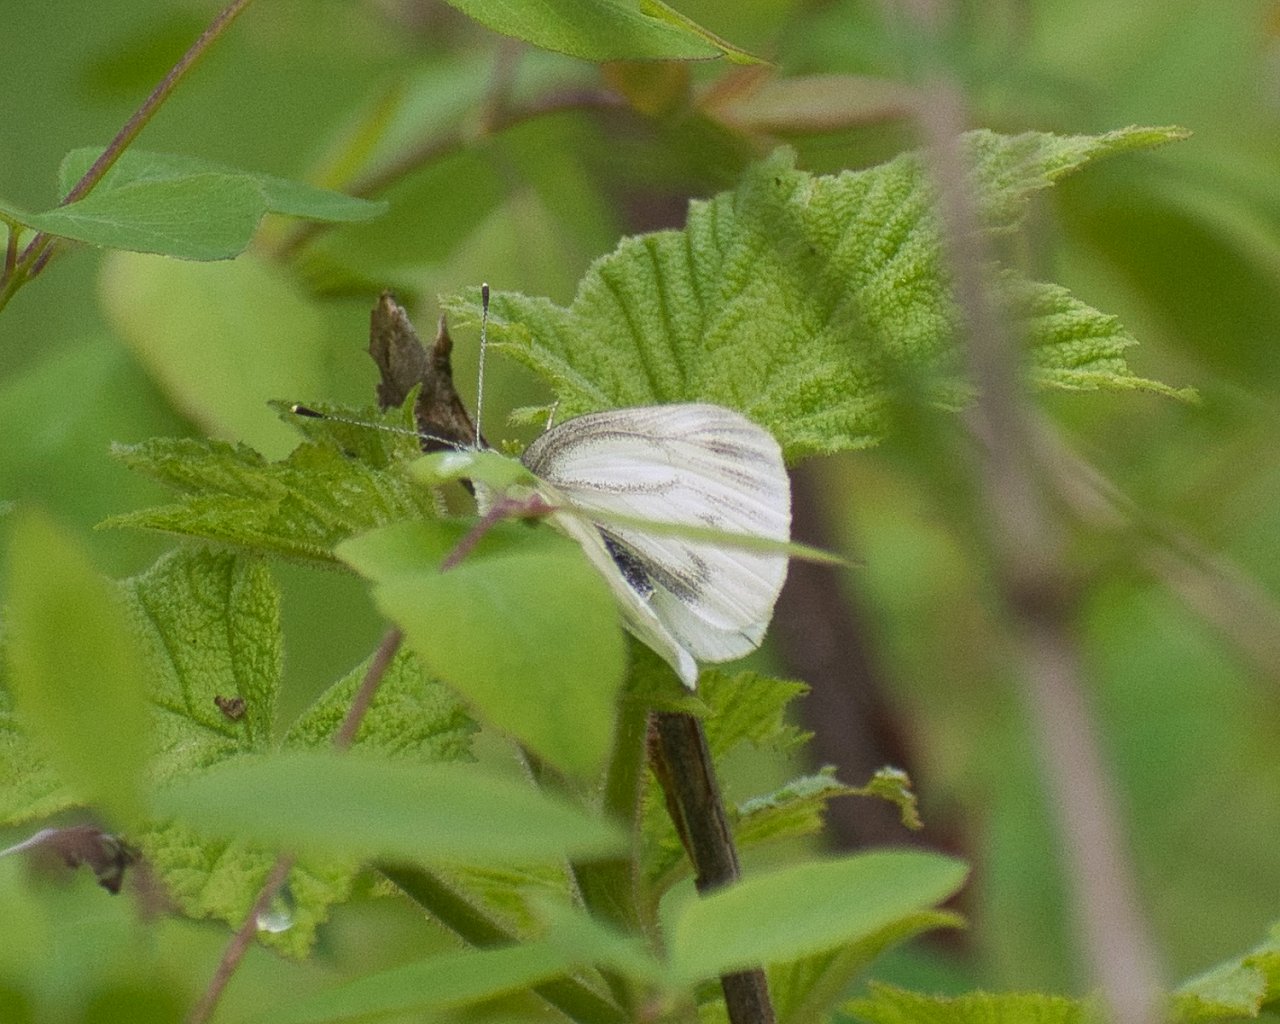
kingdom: Animalia
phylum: Arthropoda
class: Insecta
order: Lepidoptera
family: Pieridae
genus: Pieris
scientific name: Pieris marginalis
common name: Margined White
